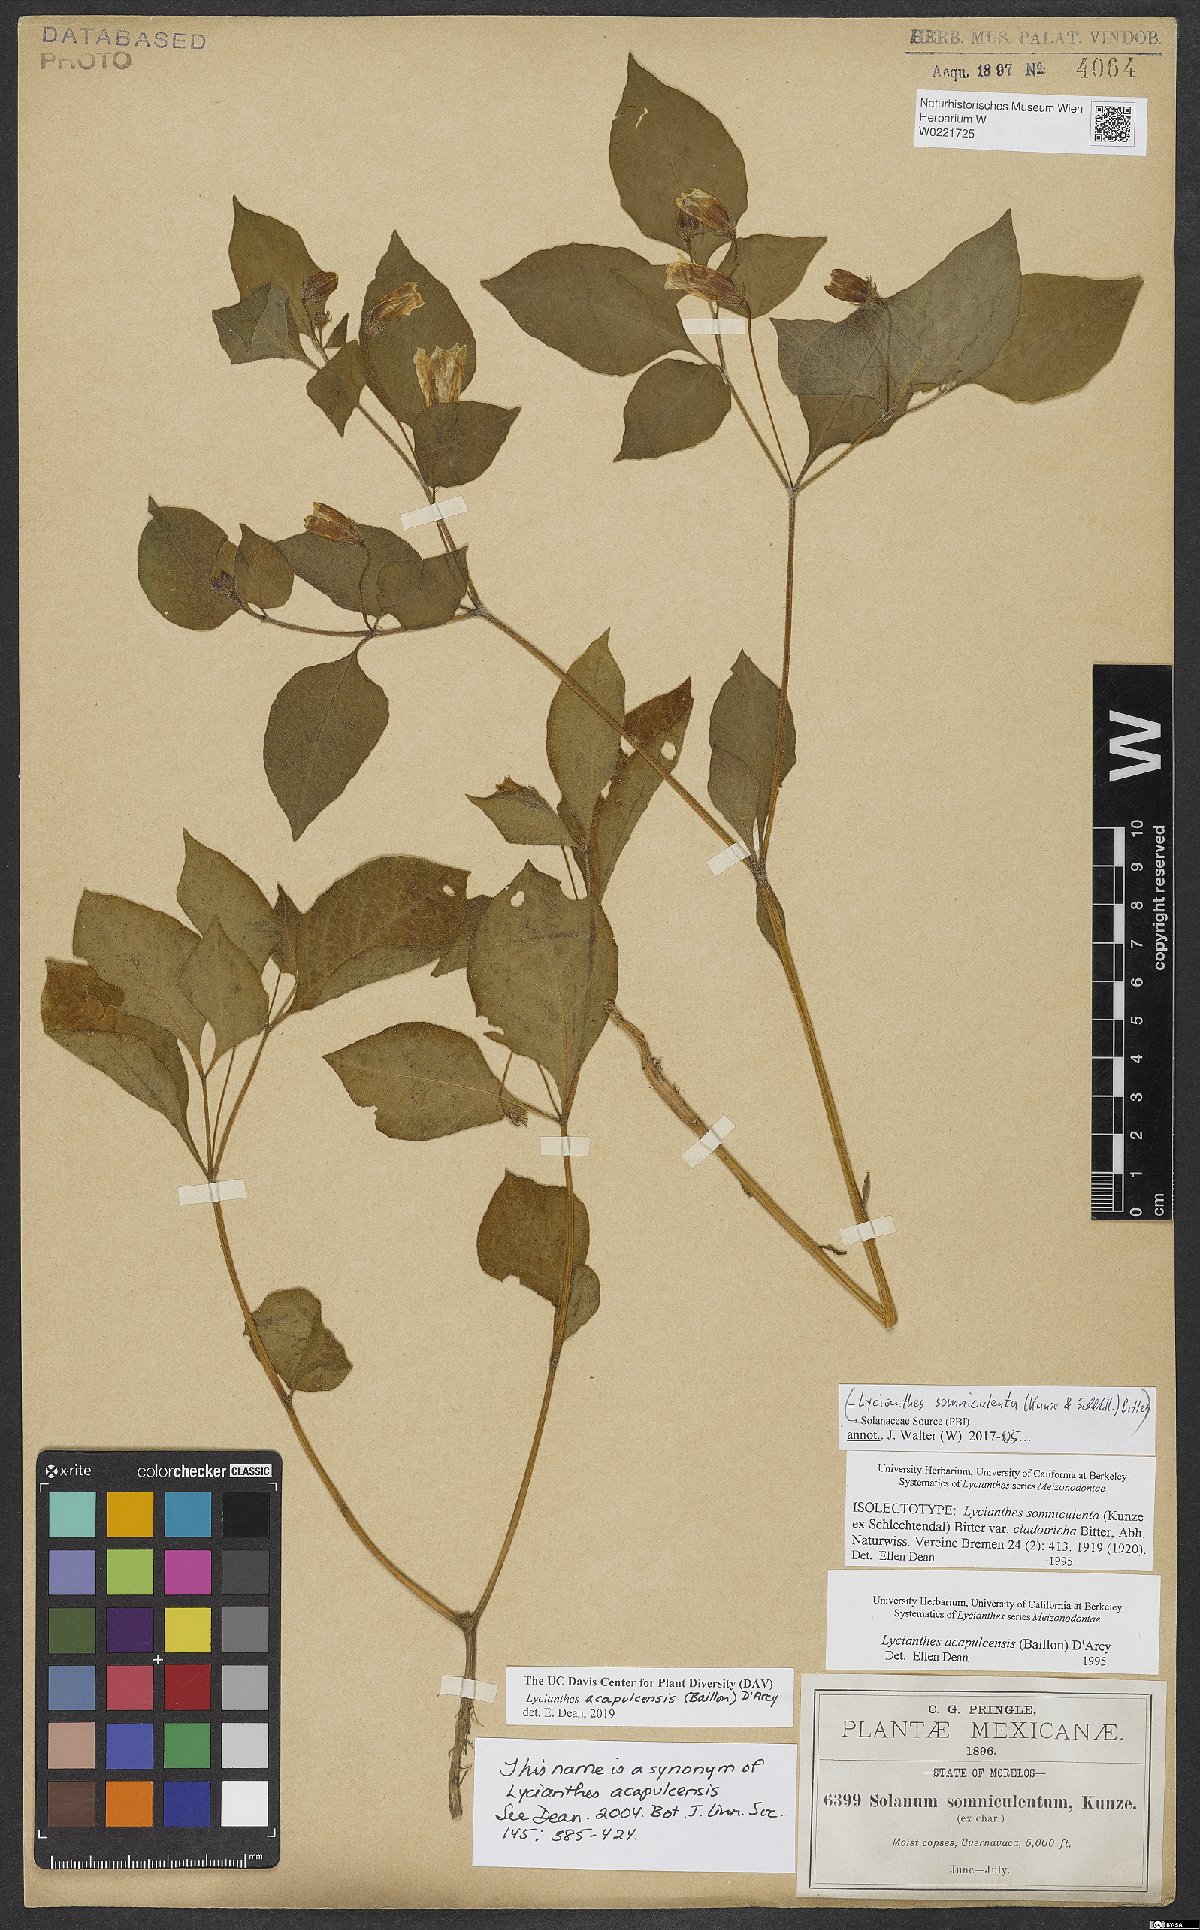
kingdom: Plantae
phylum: Tracheophyta
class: Magnoliopsida
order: Solanales
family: Solanaceae
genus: Lycianthes
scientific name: Lycianthes acapulcensis
